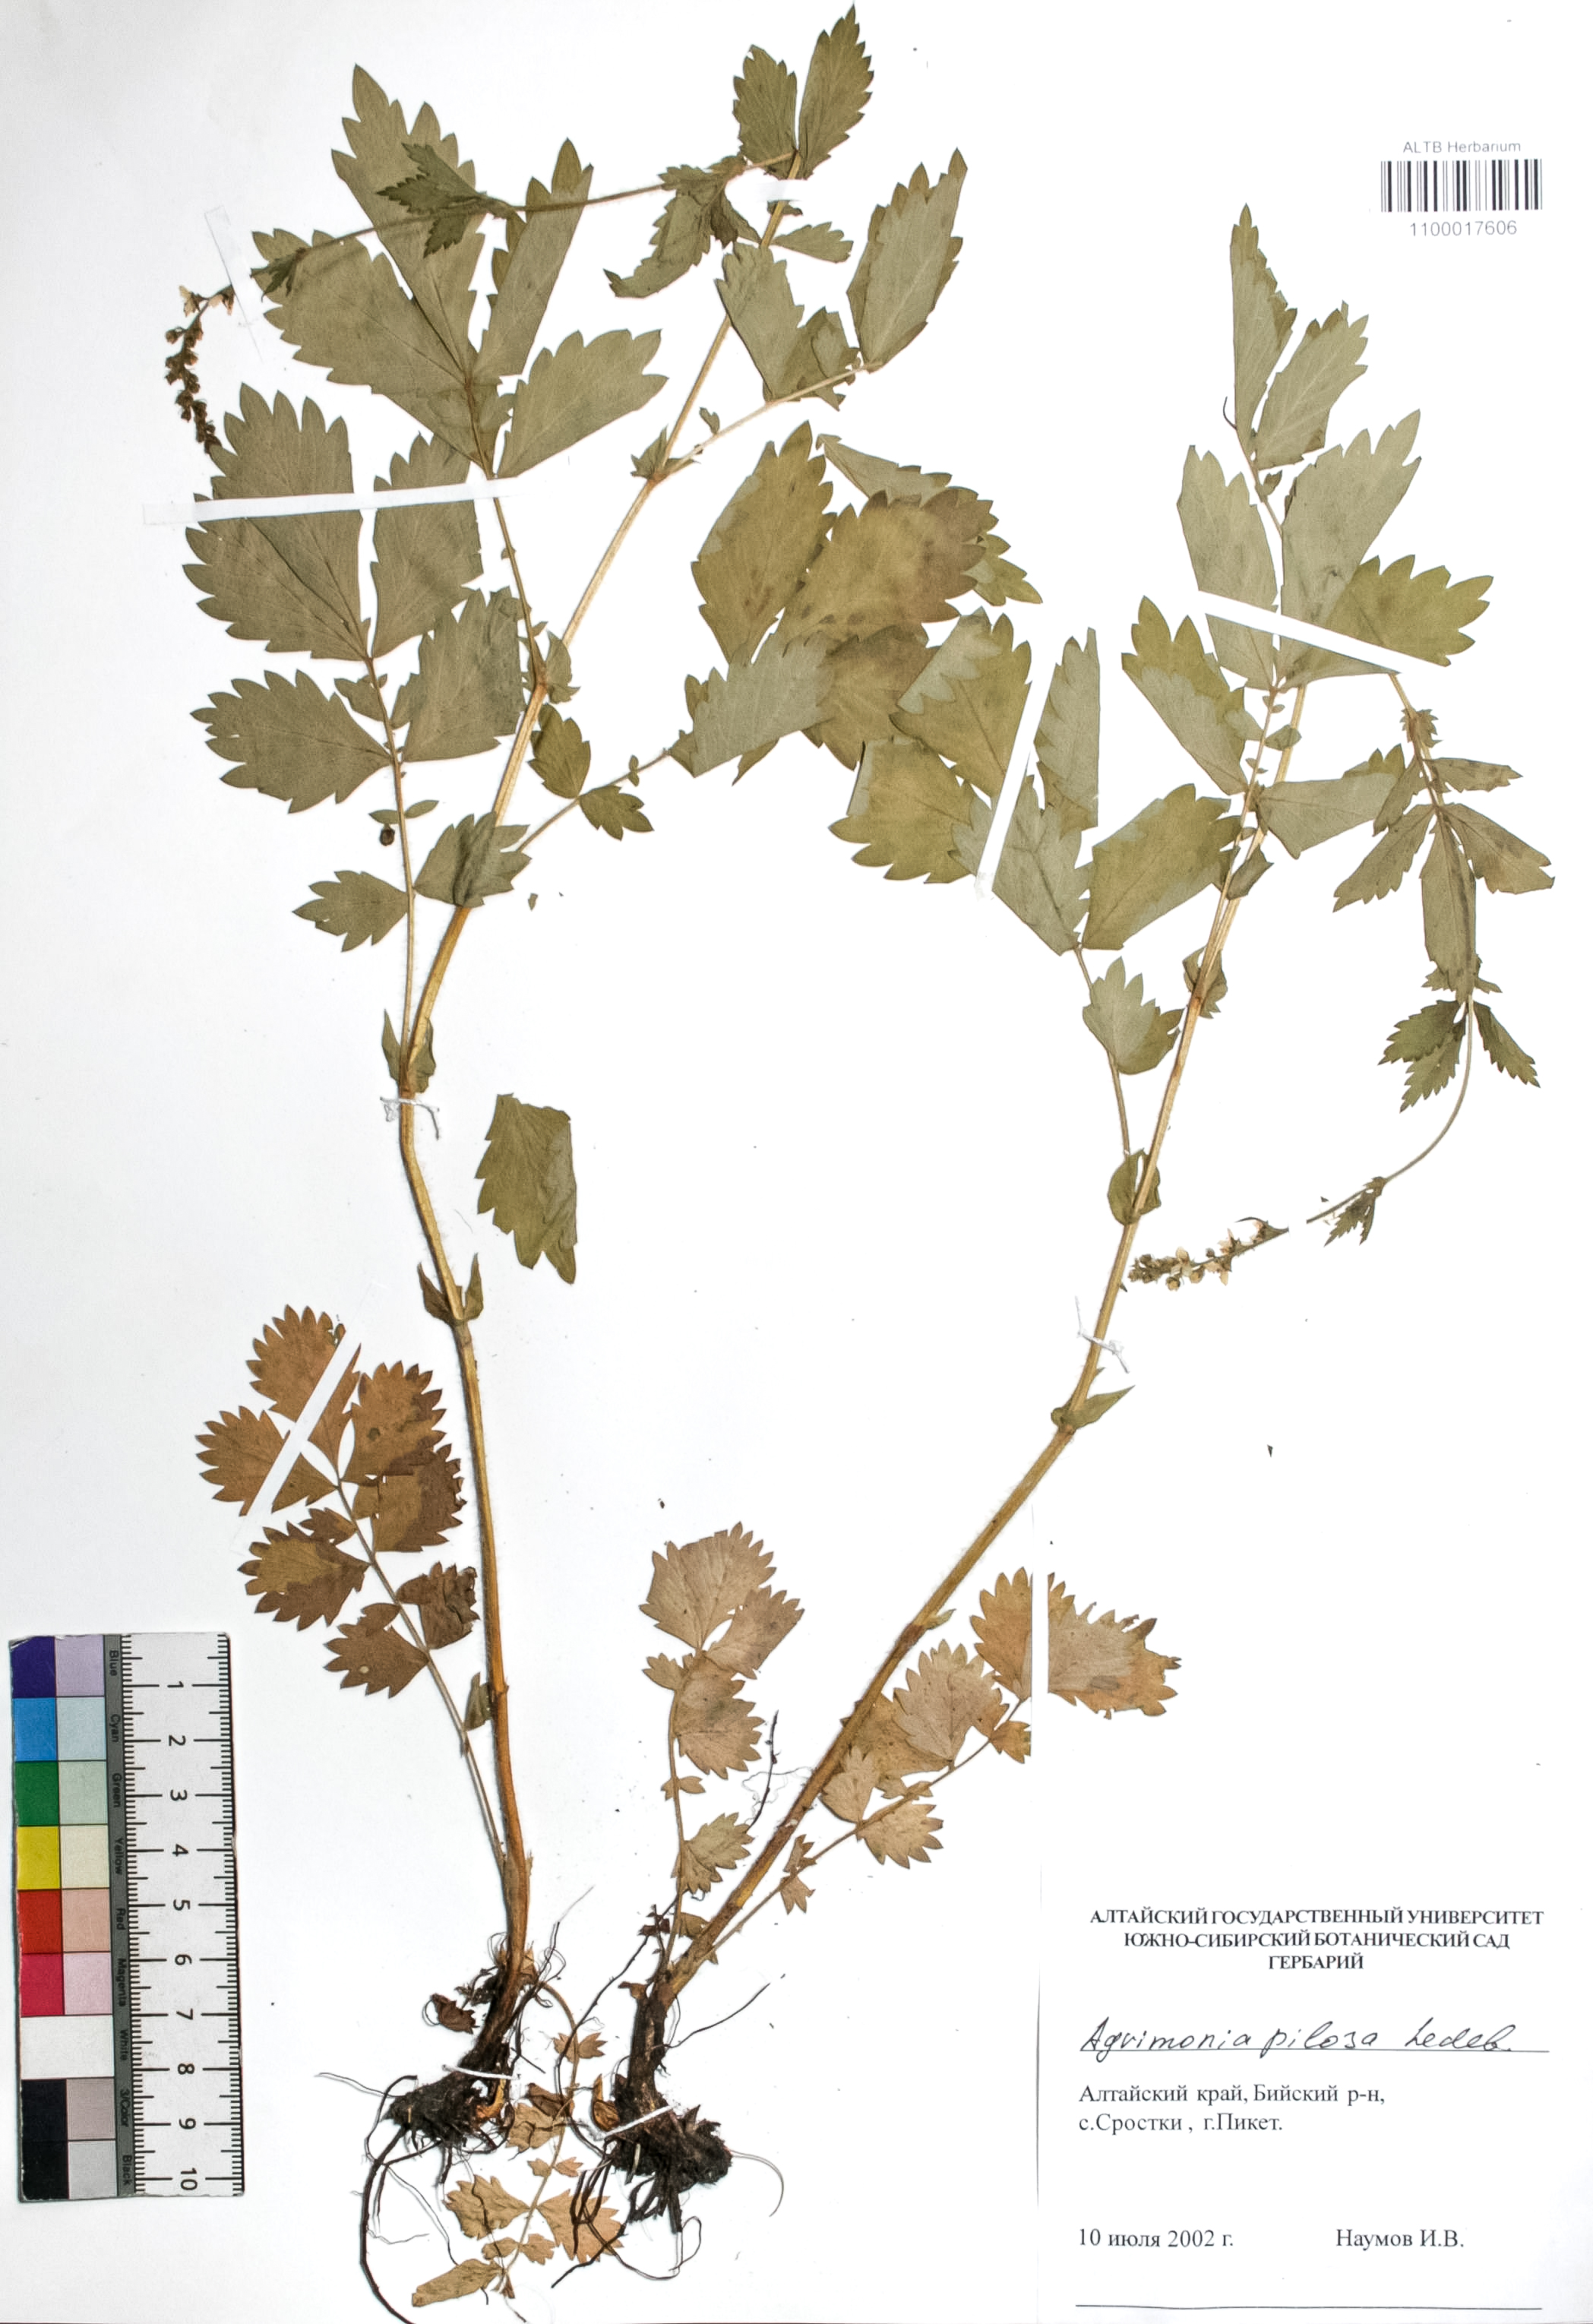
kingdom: Plantae
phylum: Tracheophyta
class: Magnoliopsida
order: Rosales
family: Rosaceae
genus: Agrimonia
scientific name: Agrimonia pilosa
